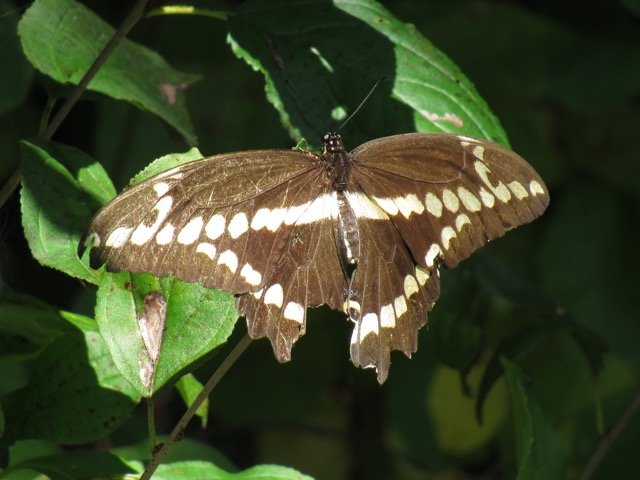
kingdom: Animalia
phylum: Arthropoda
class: Insecta
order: Lepidoptera
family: Papilionidae
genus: Papilio
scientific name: Papilio cresphontes
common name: Eastern Giant Swallowtail
